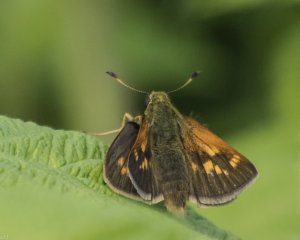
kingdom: Animalia
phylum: Arthropoda
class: Insecta
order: Lepidoptera
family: Hesperiidae
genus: Polites
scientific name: Polites themistocles
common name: Tawny-edged Skipper
